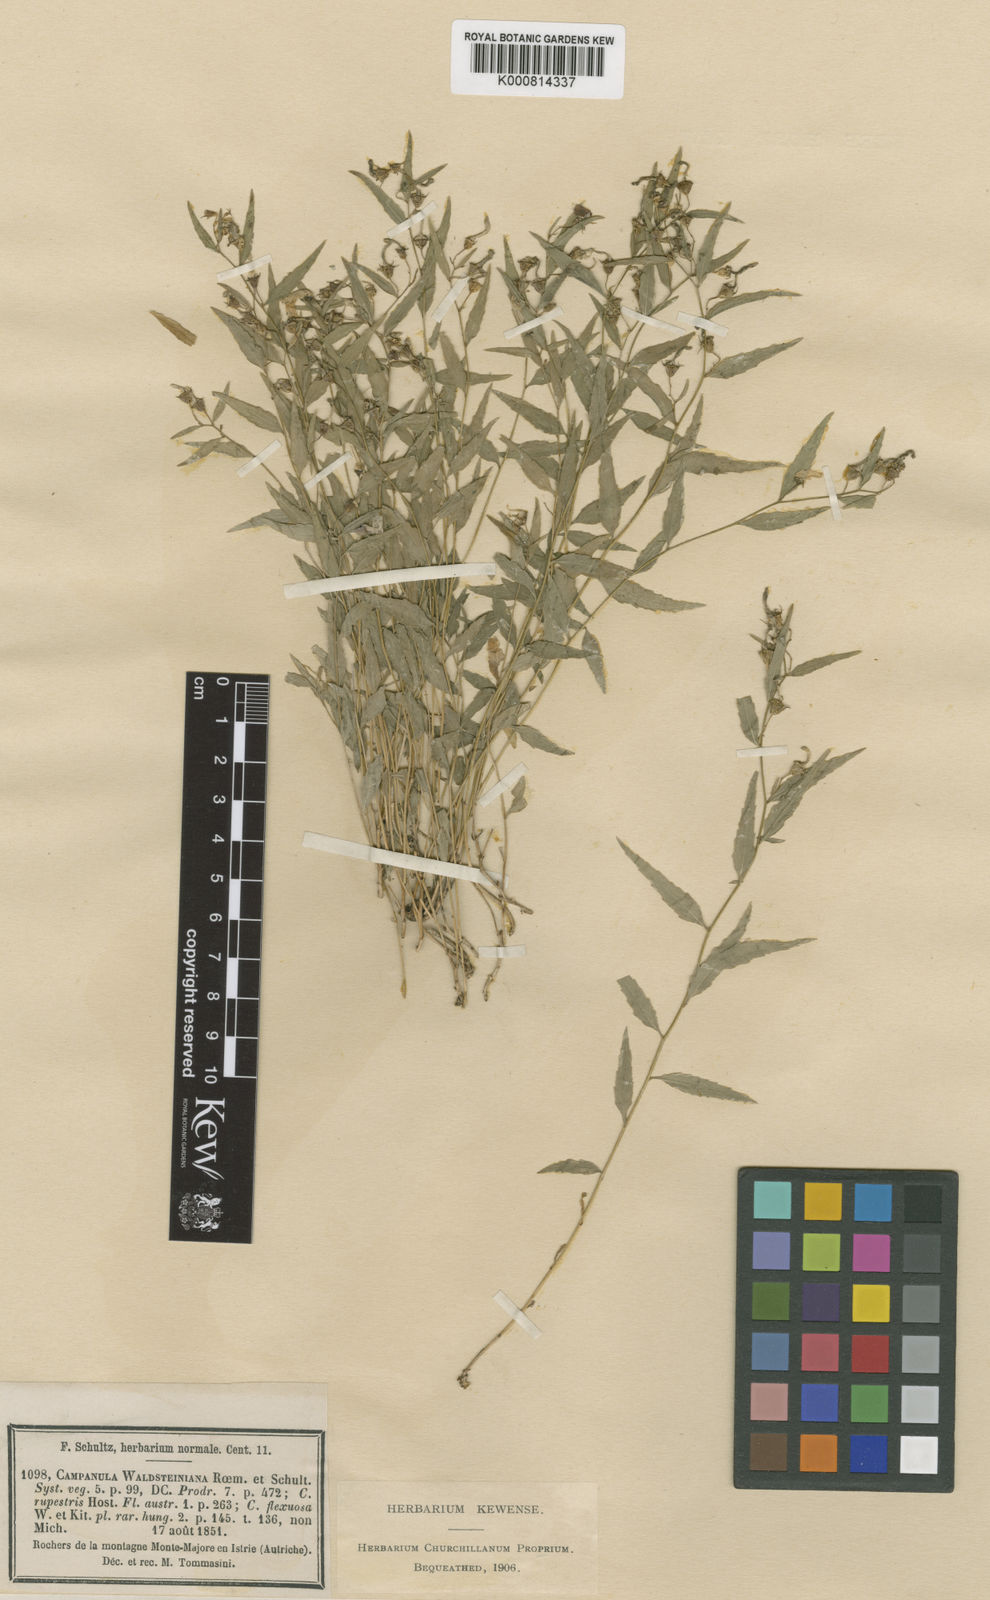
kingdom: Plantae
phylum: Tracheophyta
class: Magnoliopsida
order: Asterales
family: Campanulaceae
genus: Campanula
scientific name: Campanula
